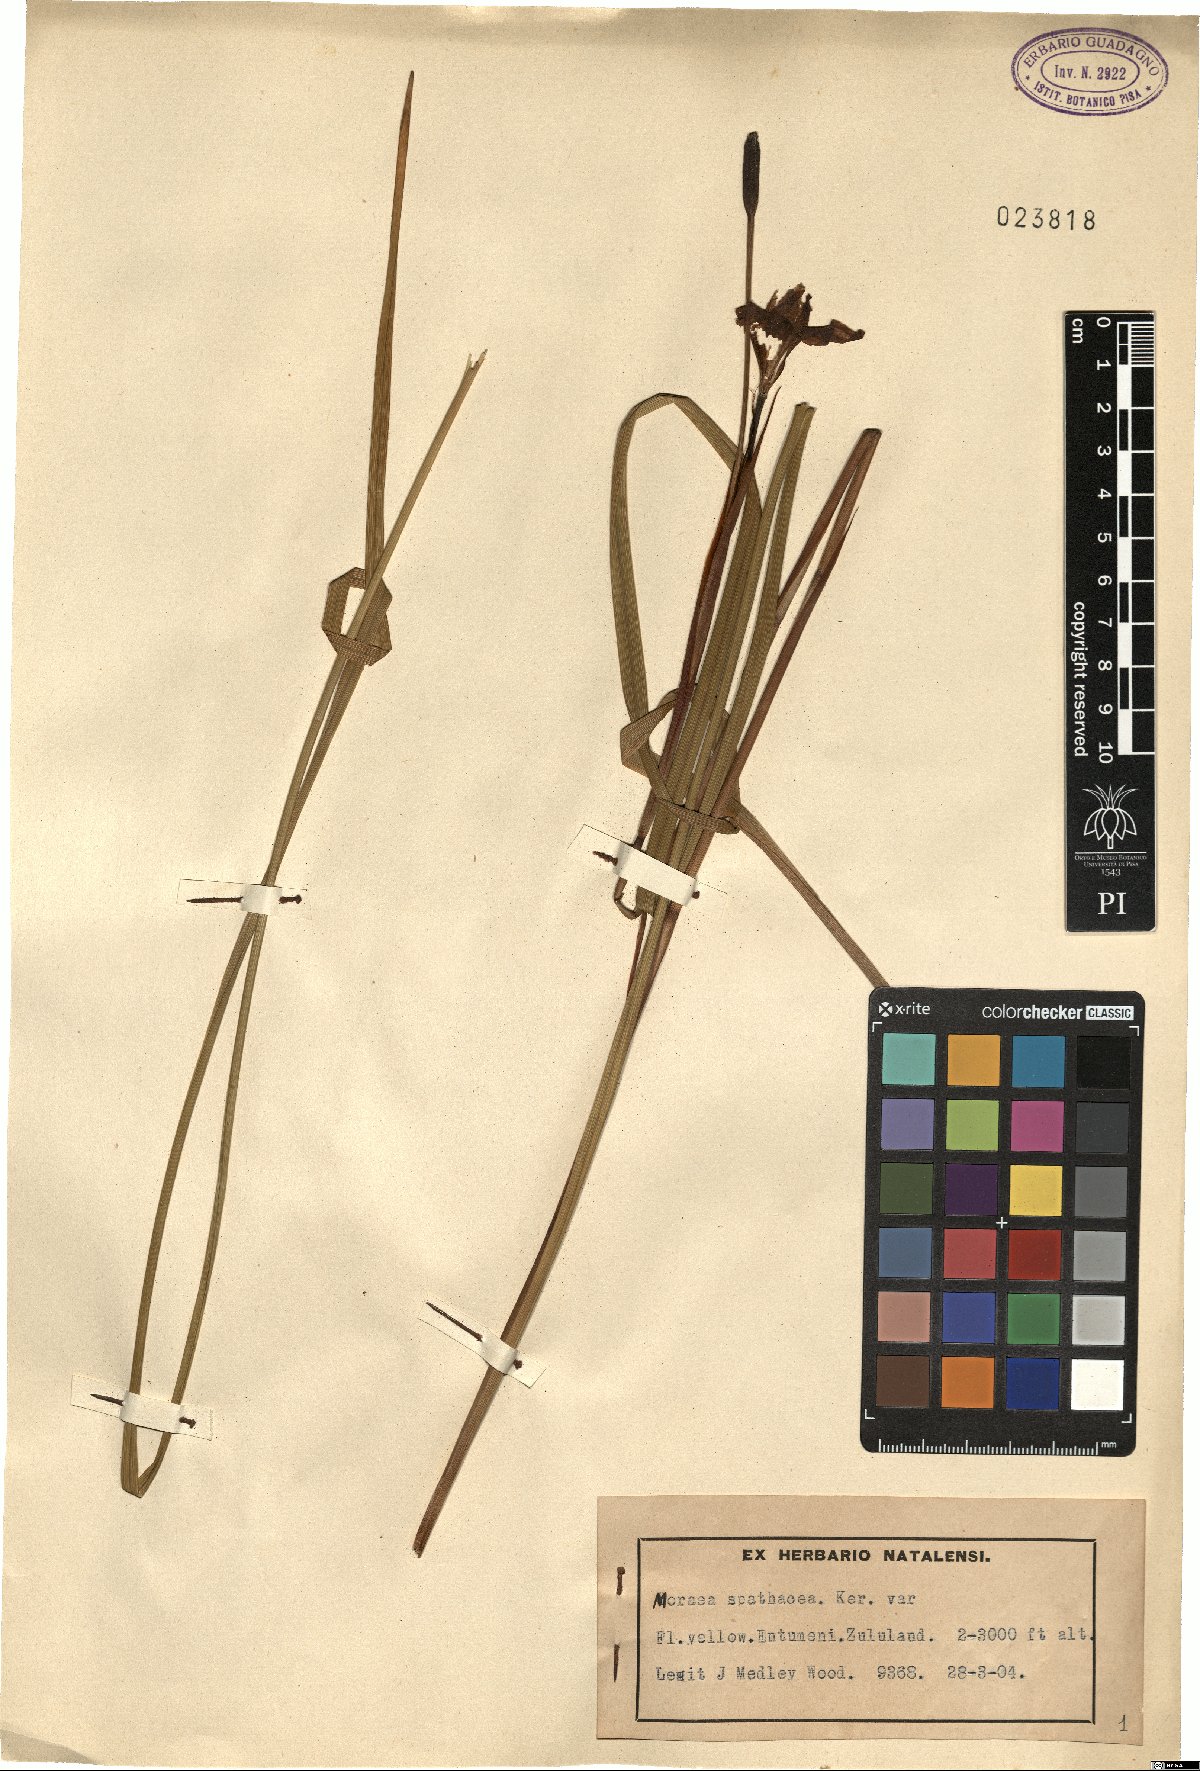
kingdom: Plantae
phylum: Tracheophyta
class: Liliopsida
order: Asparagales
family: Iridaceae
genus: Moraea
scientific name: Moraea spathulata
